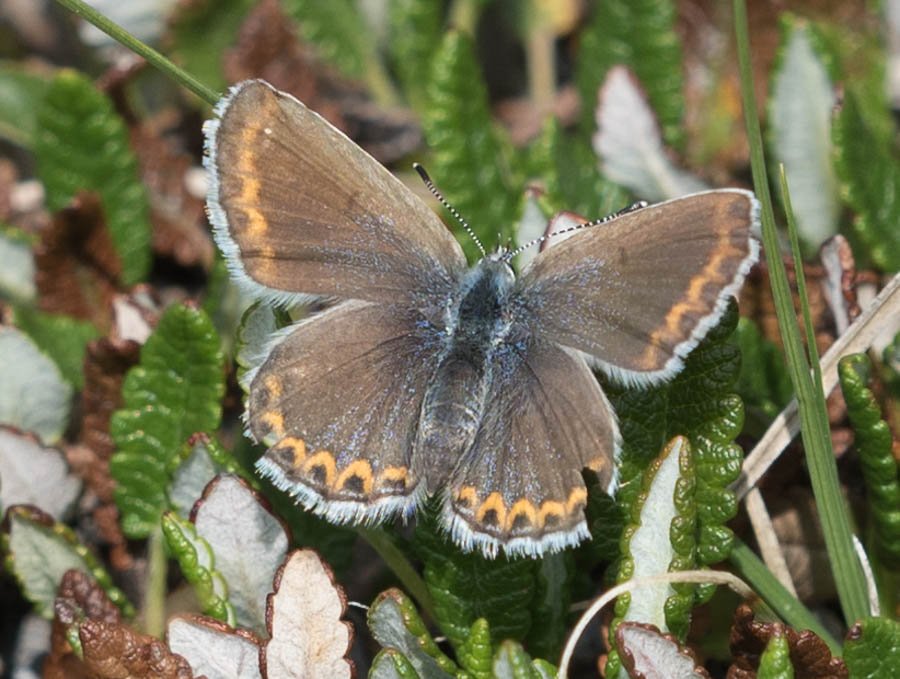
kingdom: Animalia
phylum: Arthropoda
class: Insecta
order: Lepidoptera
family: Lycaenidae
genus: Lycaeides
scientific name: Lycaeides idas
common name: Northern Blue
